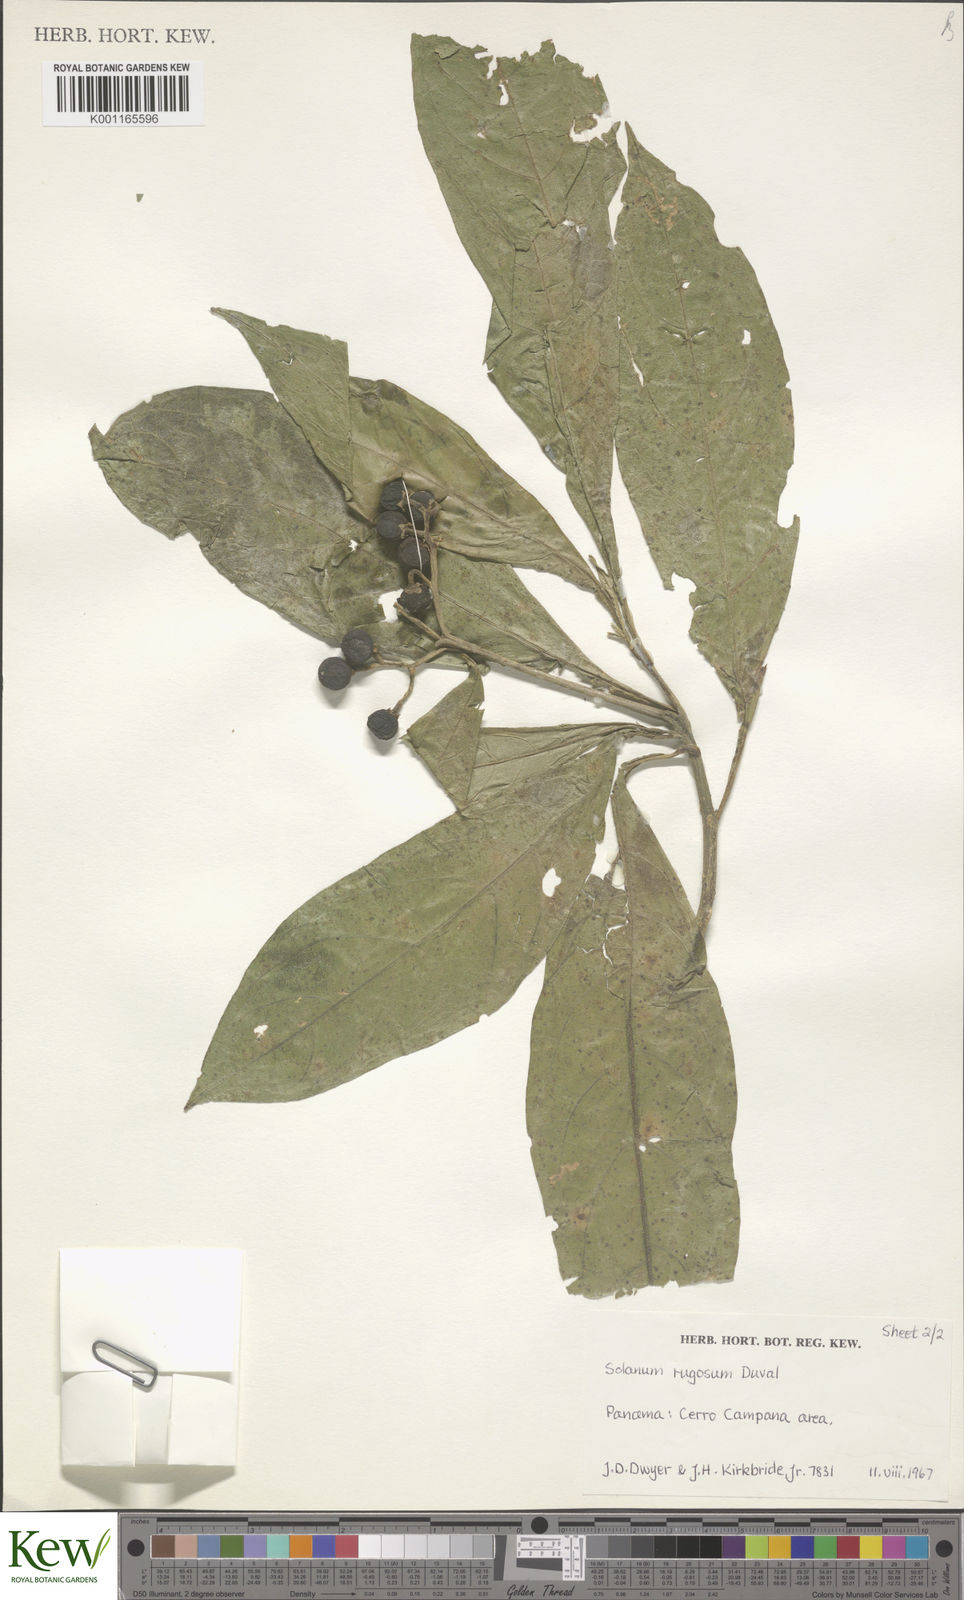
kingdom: Plantae
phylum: Tracheophyta
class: Magnoliopsida
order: Solanales
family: Solanaceae
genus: Solanum
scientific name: Solanum rugosum
